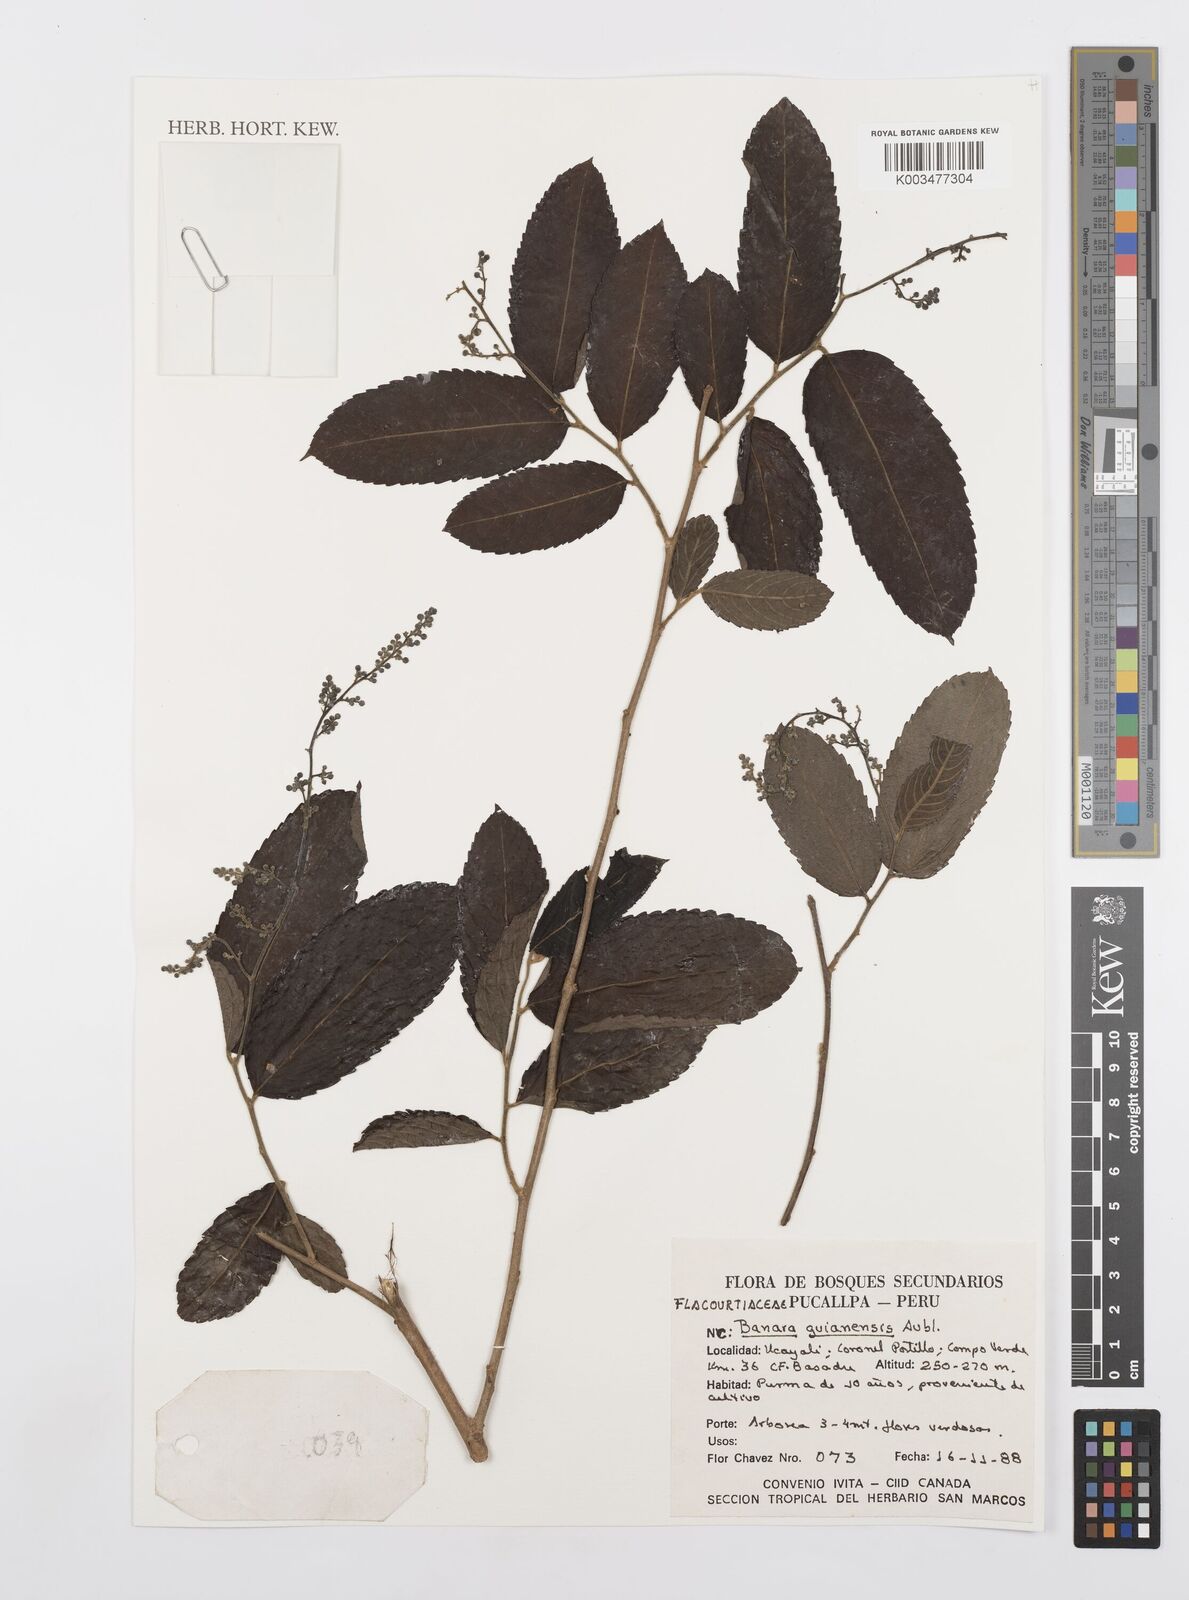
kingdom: Plantae
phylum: Tracheophyta
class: Magnoliopsida
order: Malpighiales
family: Salicaceae
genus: Banara
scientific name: Banara guianensis
